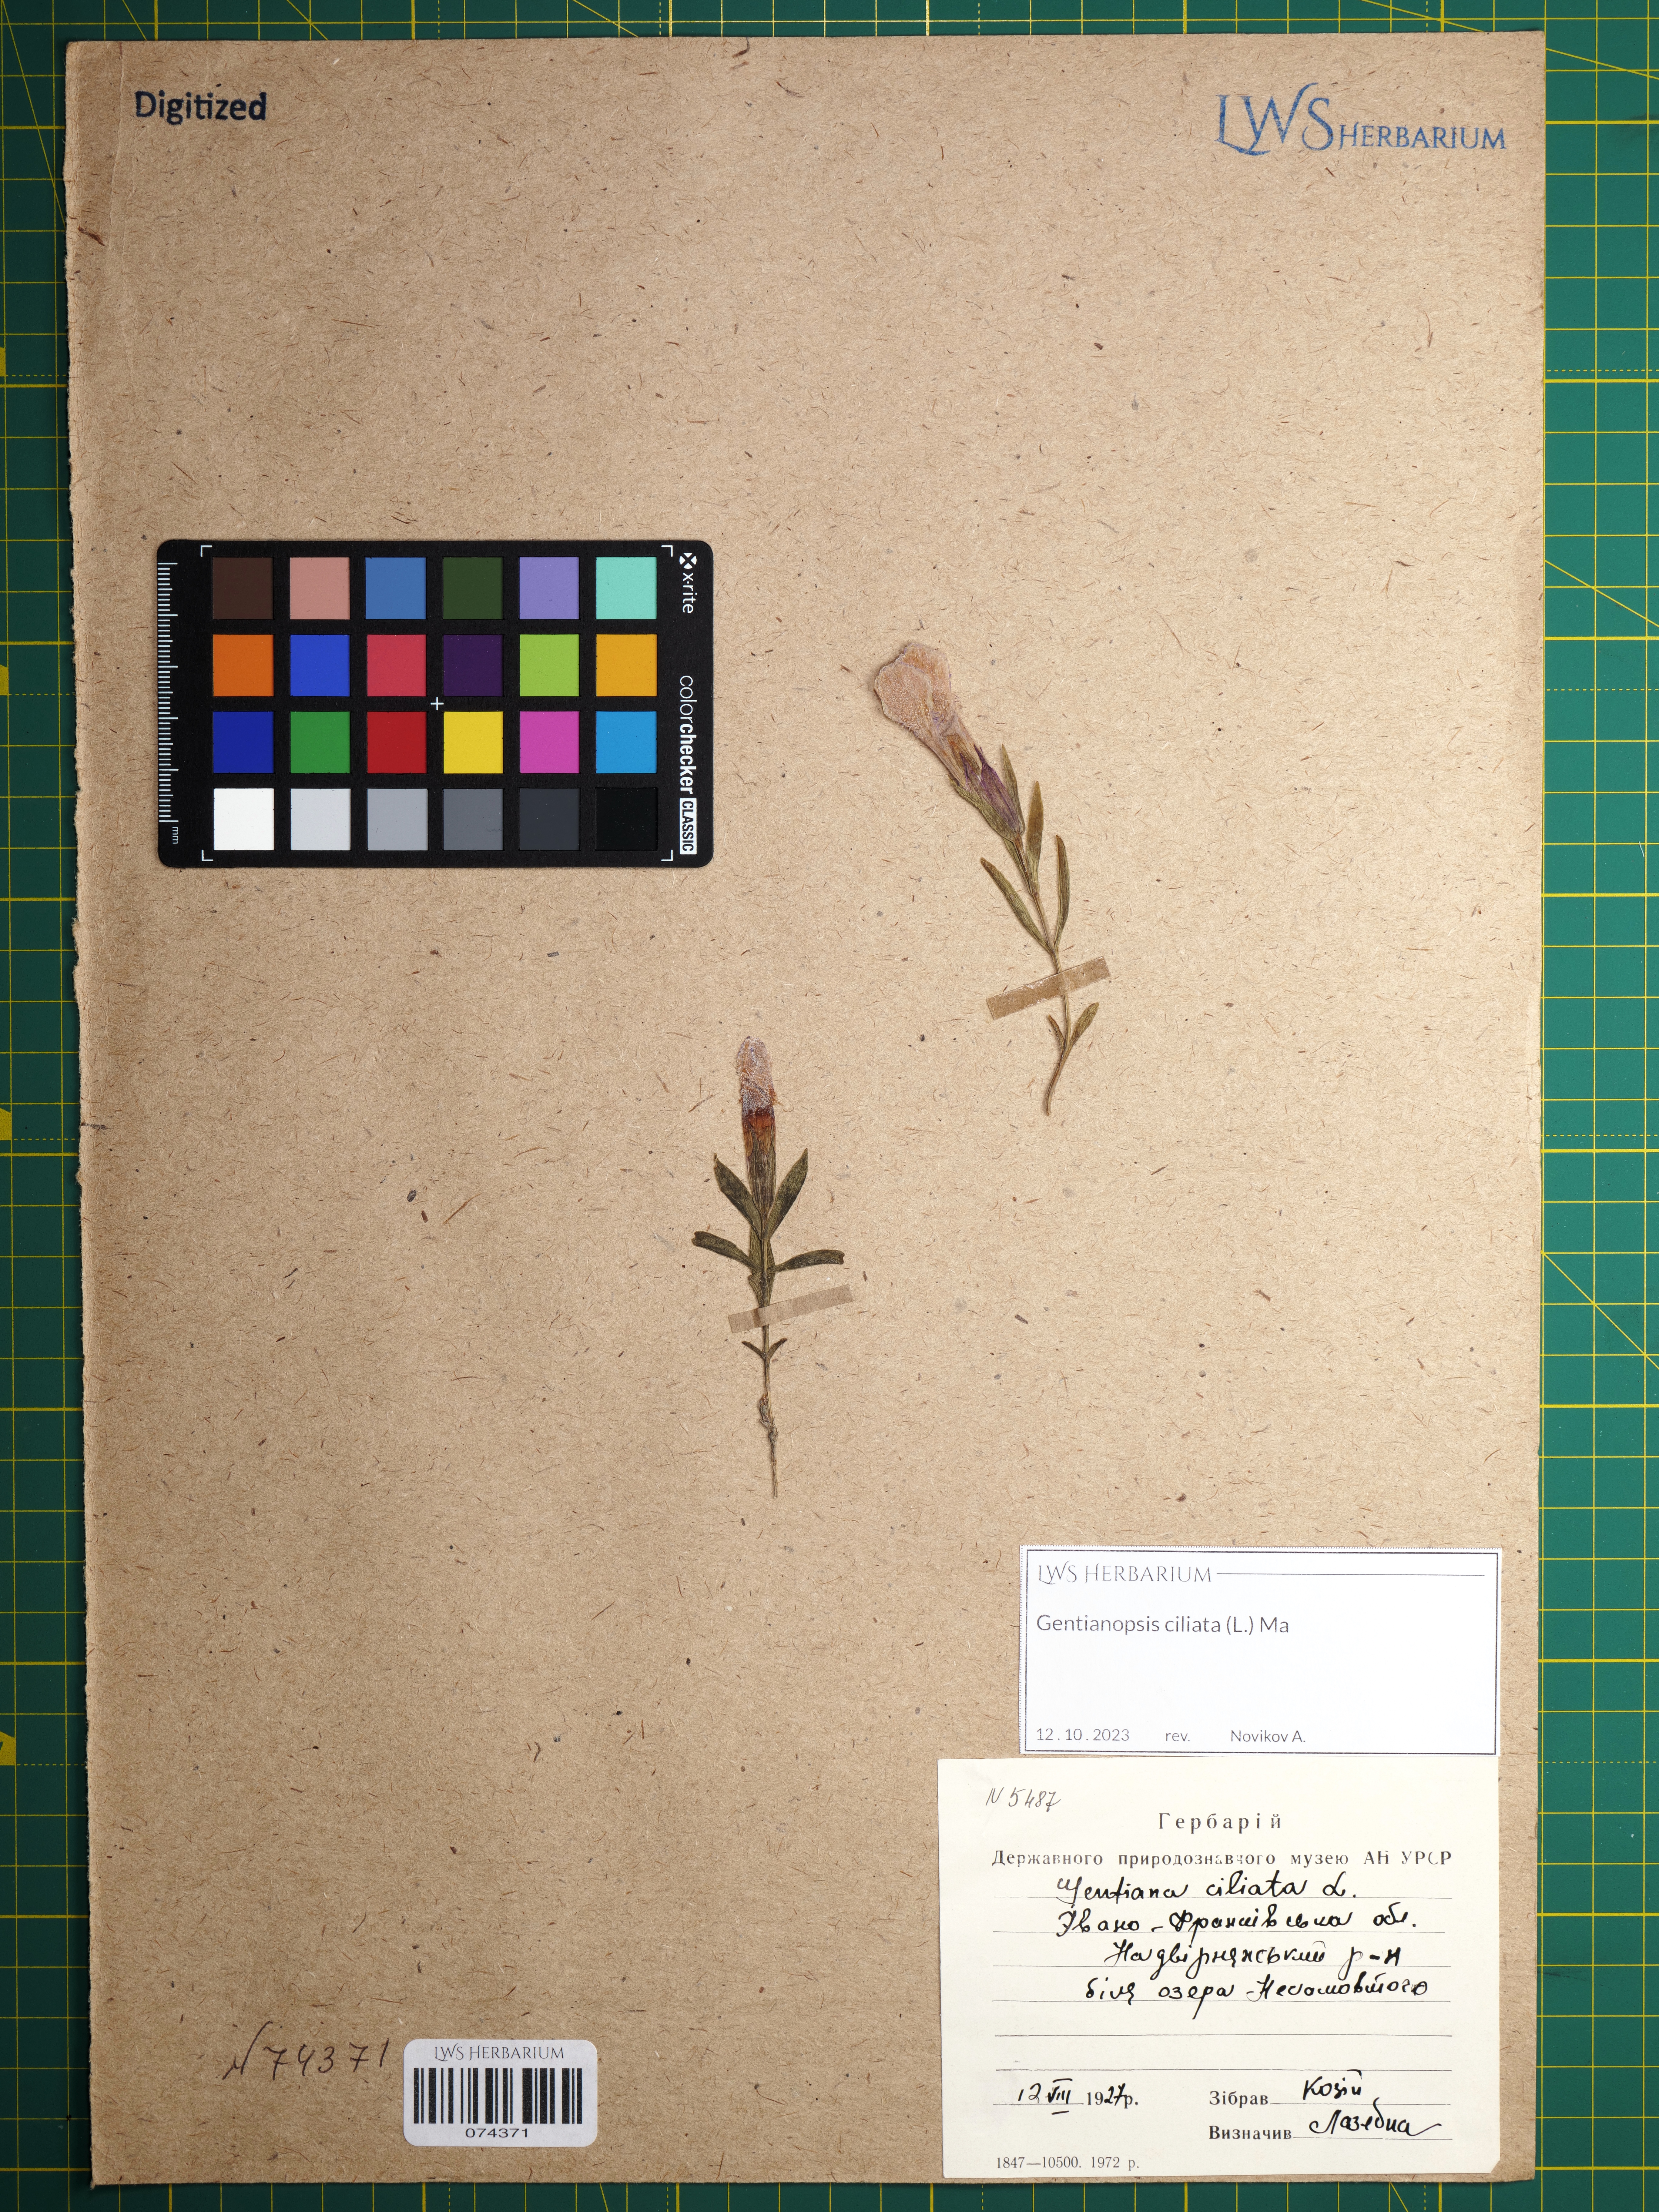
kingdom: Plantae
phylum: Tracheophyta
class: Magnoliopsida
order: Gentianales
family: Gentianaceae
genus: Gentianopsis
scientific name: Gentianopsis ciliata
